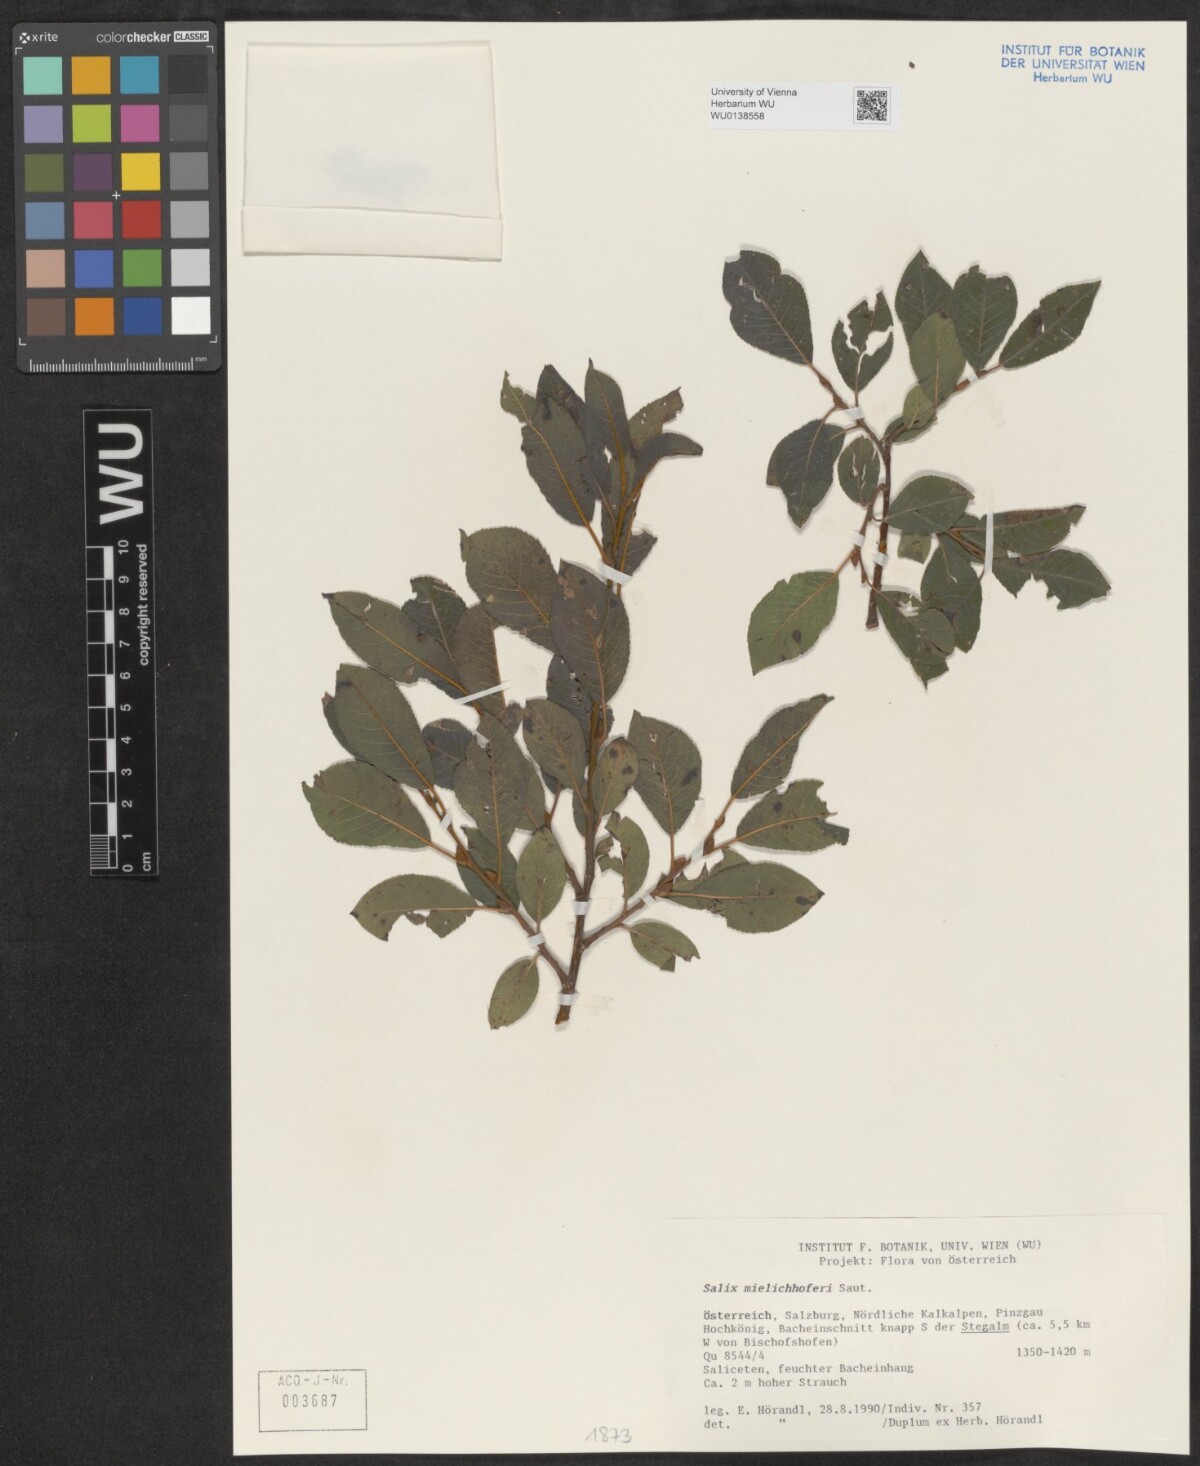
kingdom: Plantae
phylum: Tracheophyta
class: Magnoliopsida
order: Malpighiales
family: Salicaceae
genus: Salix
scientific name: Salix mielichhoferi
